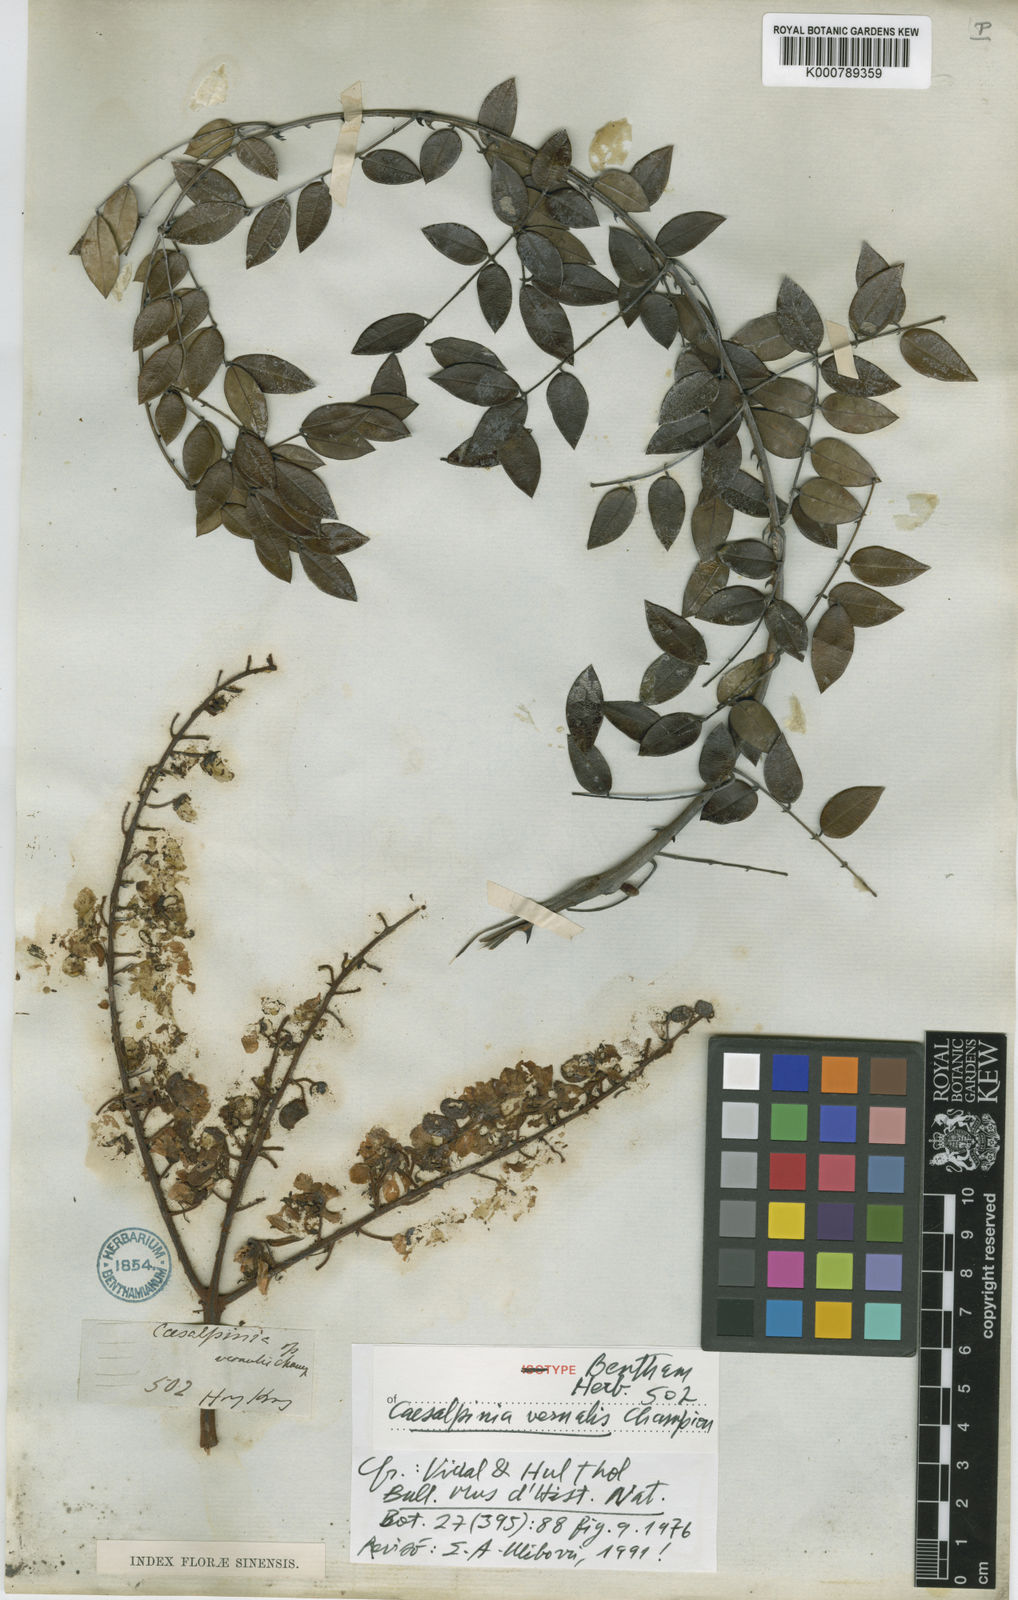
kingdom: Plantae
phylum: Tracheophyta
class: Magnoliopsida
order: Fabales
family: Fabaceae
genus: Caesalpinia
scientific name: Caesalpinia Ticanto vernalis
